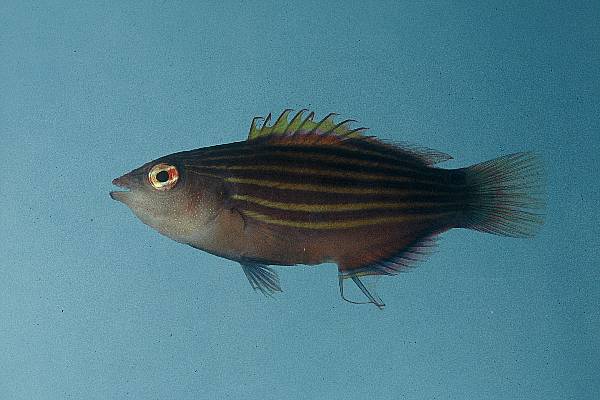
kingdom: Animalia
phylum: Chordata
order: Perciformes
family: Labridae
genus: Pseudocheilinus
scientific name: Pseudocheilinus hexataenia
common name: Sixline wrasse
